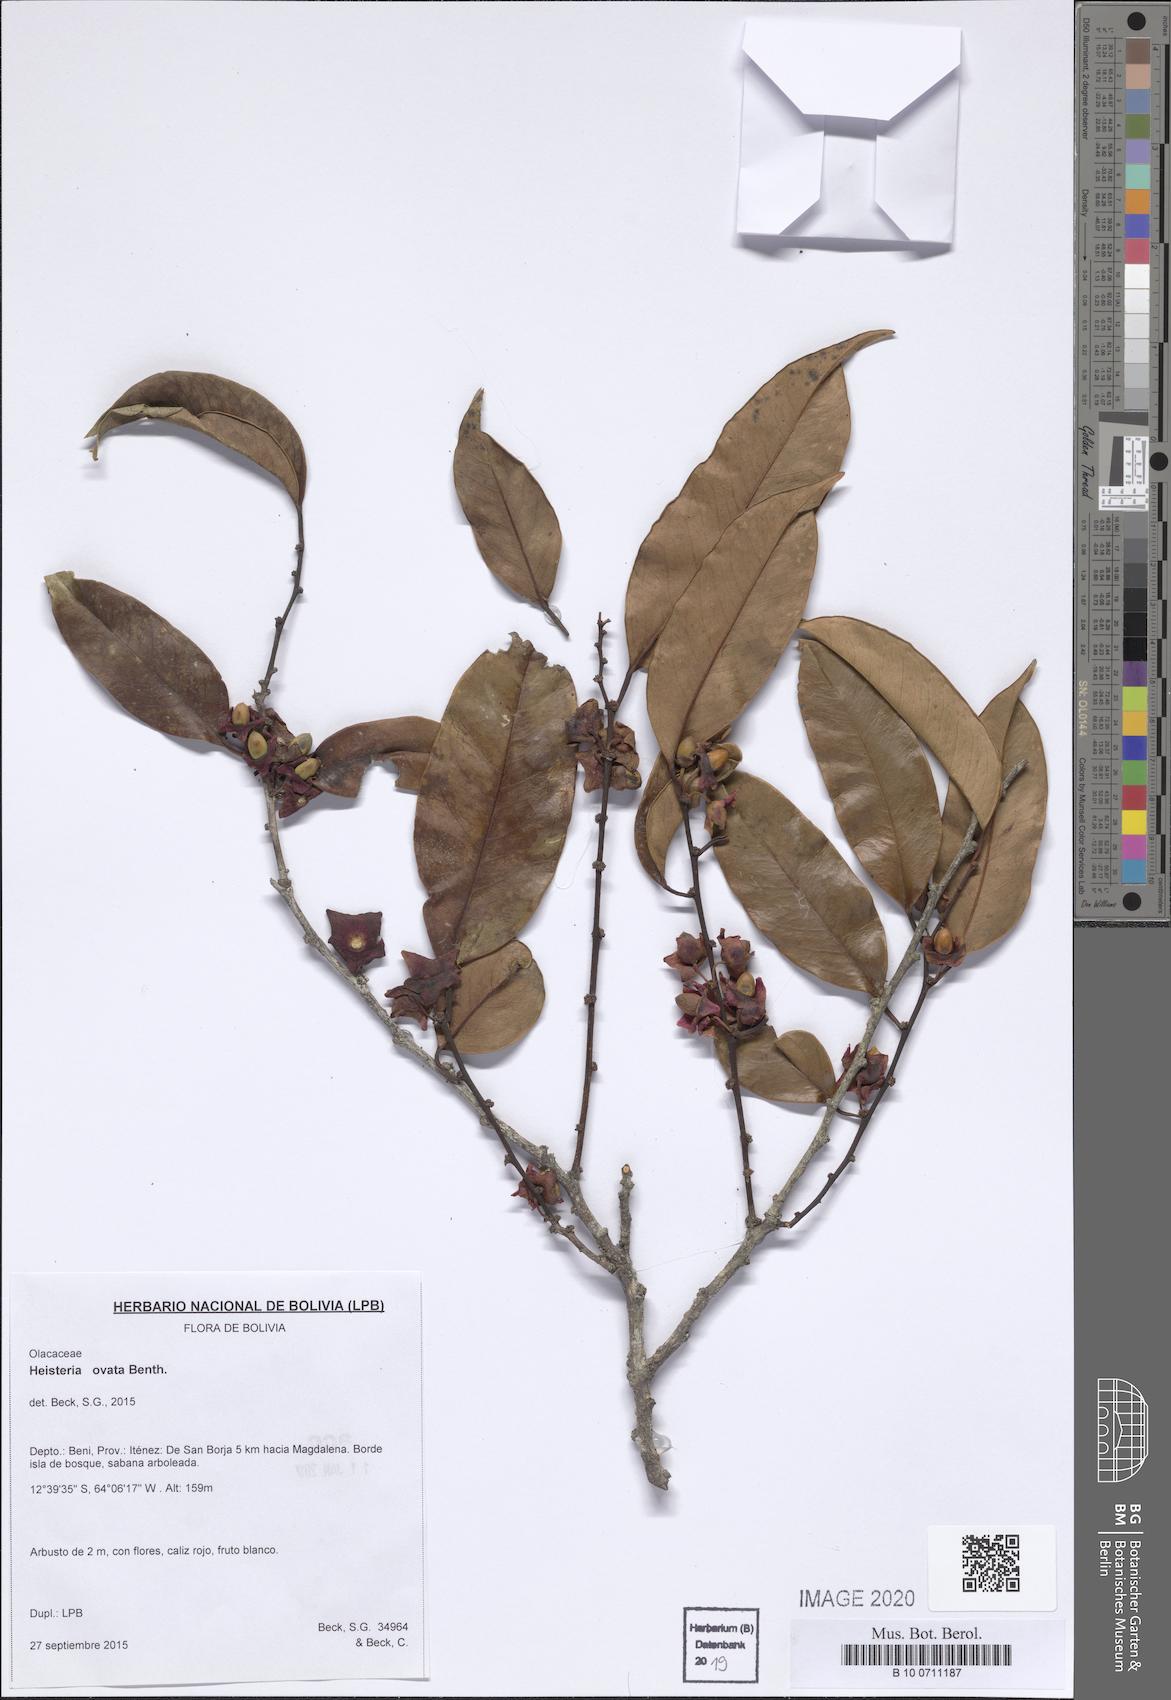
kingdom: Plantae
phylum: Tracheophyta
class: Magnoliopsida
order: Santalales
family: Erythropalaceae
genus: Heisteria
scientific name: Heisteria ovata
